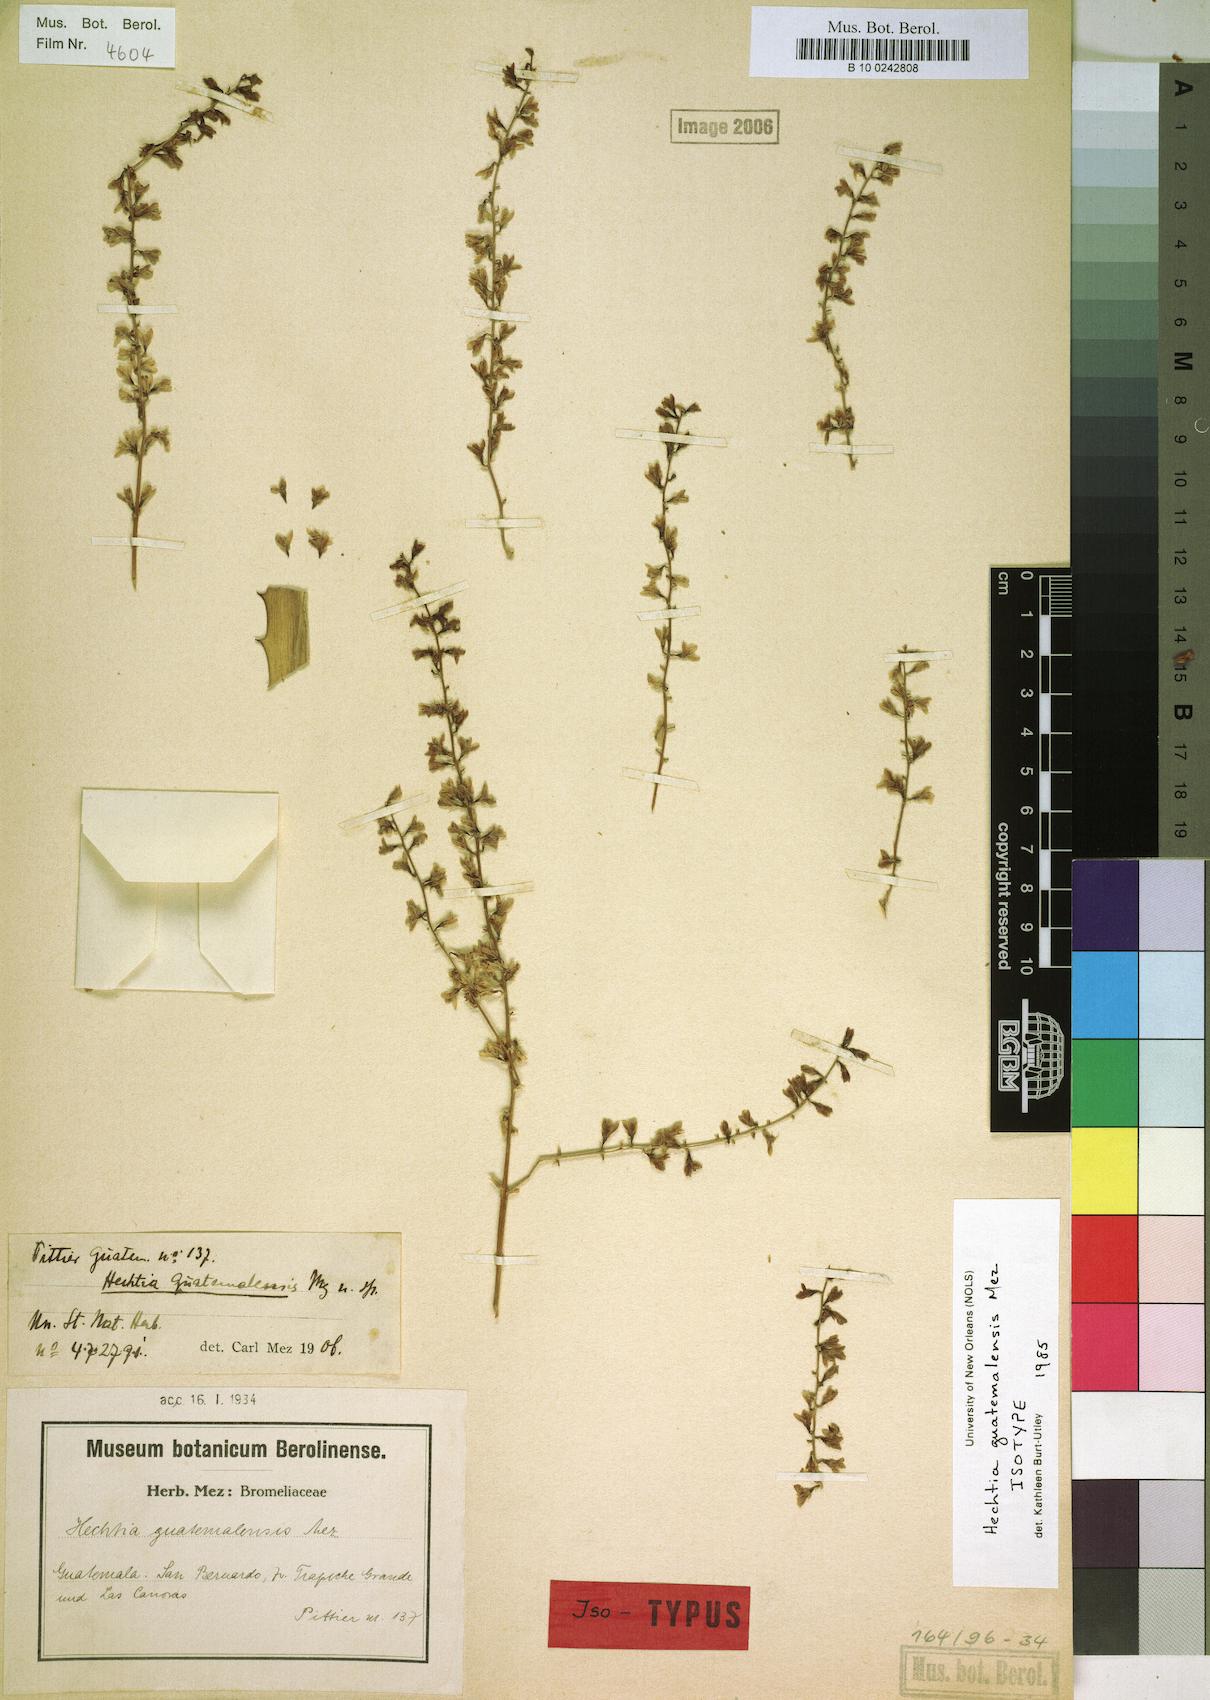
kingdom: Plantae
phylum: Tracheophyta
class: Liliopsida
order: Poales
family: Bromeliaceae
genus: Hechtia
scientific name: Hechtia guatemalensis
